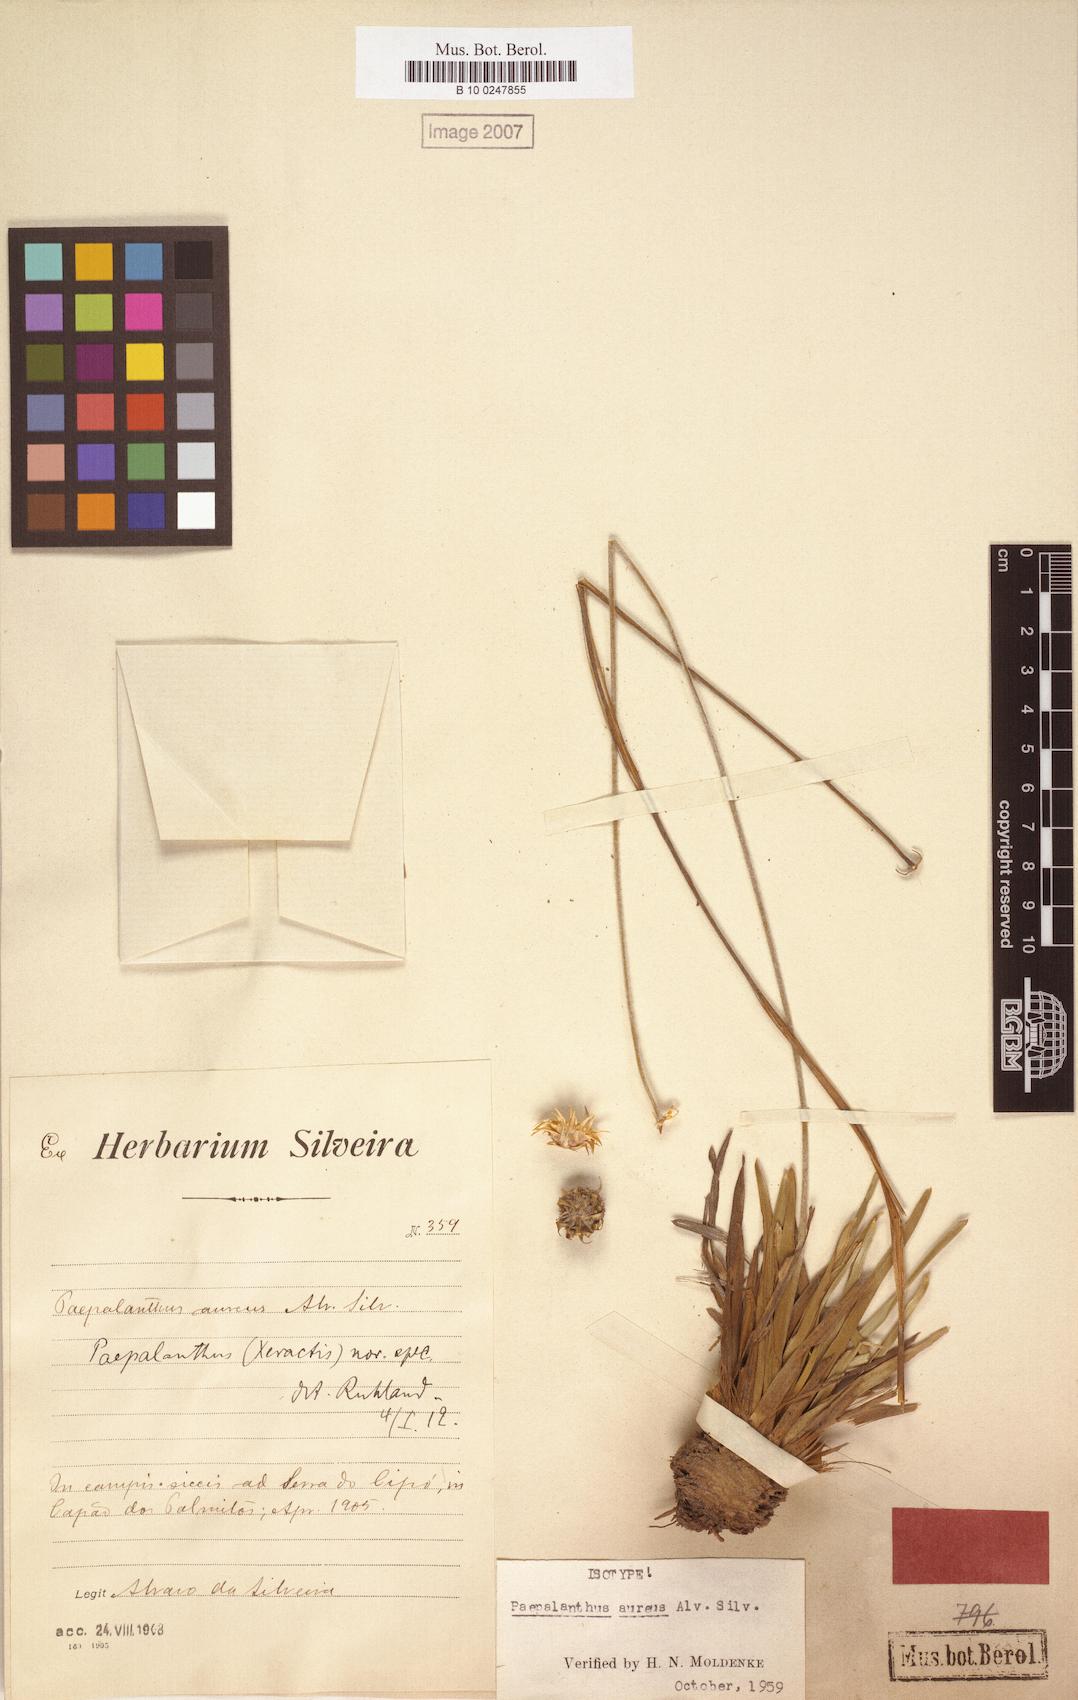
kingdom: Plantae
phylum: Tracheophyta
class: Liliopsida
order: Poales
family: Eriocaulaceae
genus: Paepalanthus
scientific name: Paepalanthus aureus
